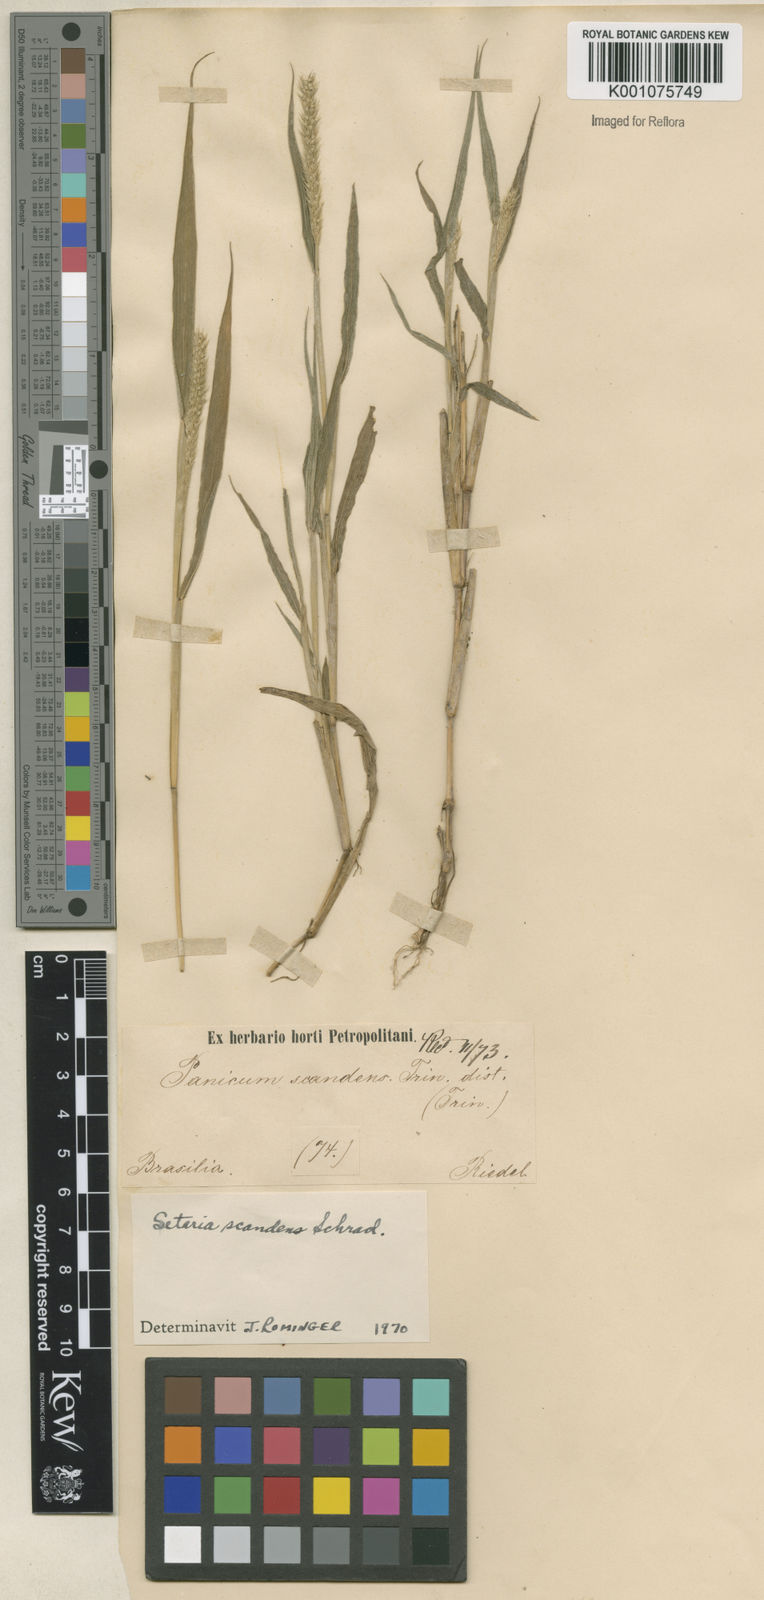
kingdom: Plantae
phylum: Tracheophyta
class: Liliopsida
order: Poales
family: Poaceae
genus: Setaria
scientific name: Setaria scandens
